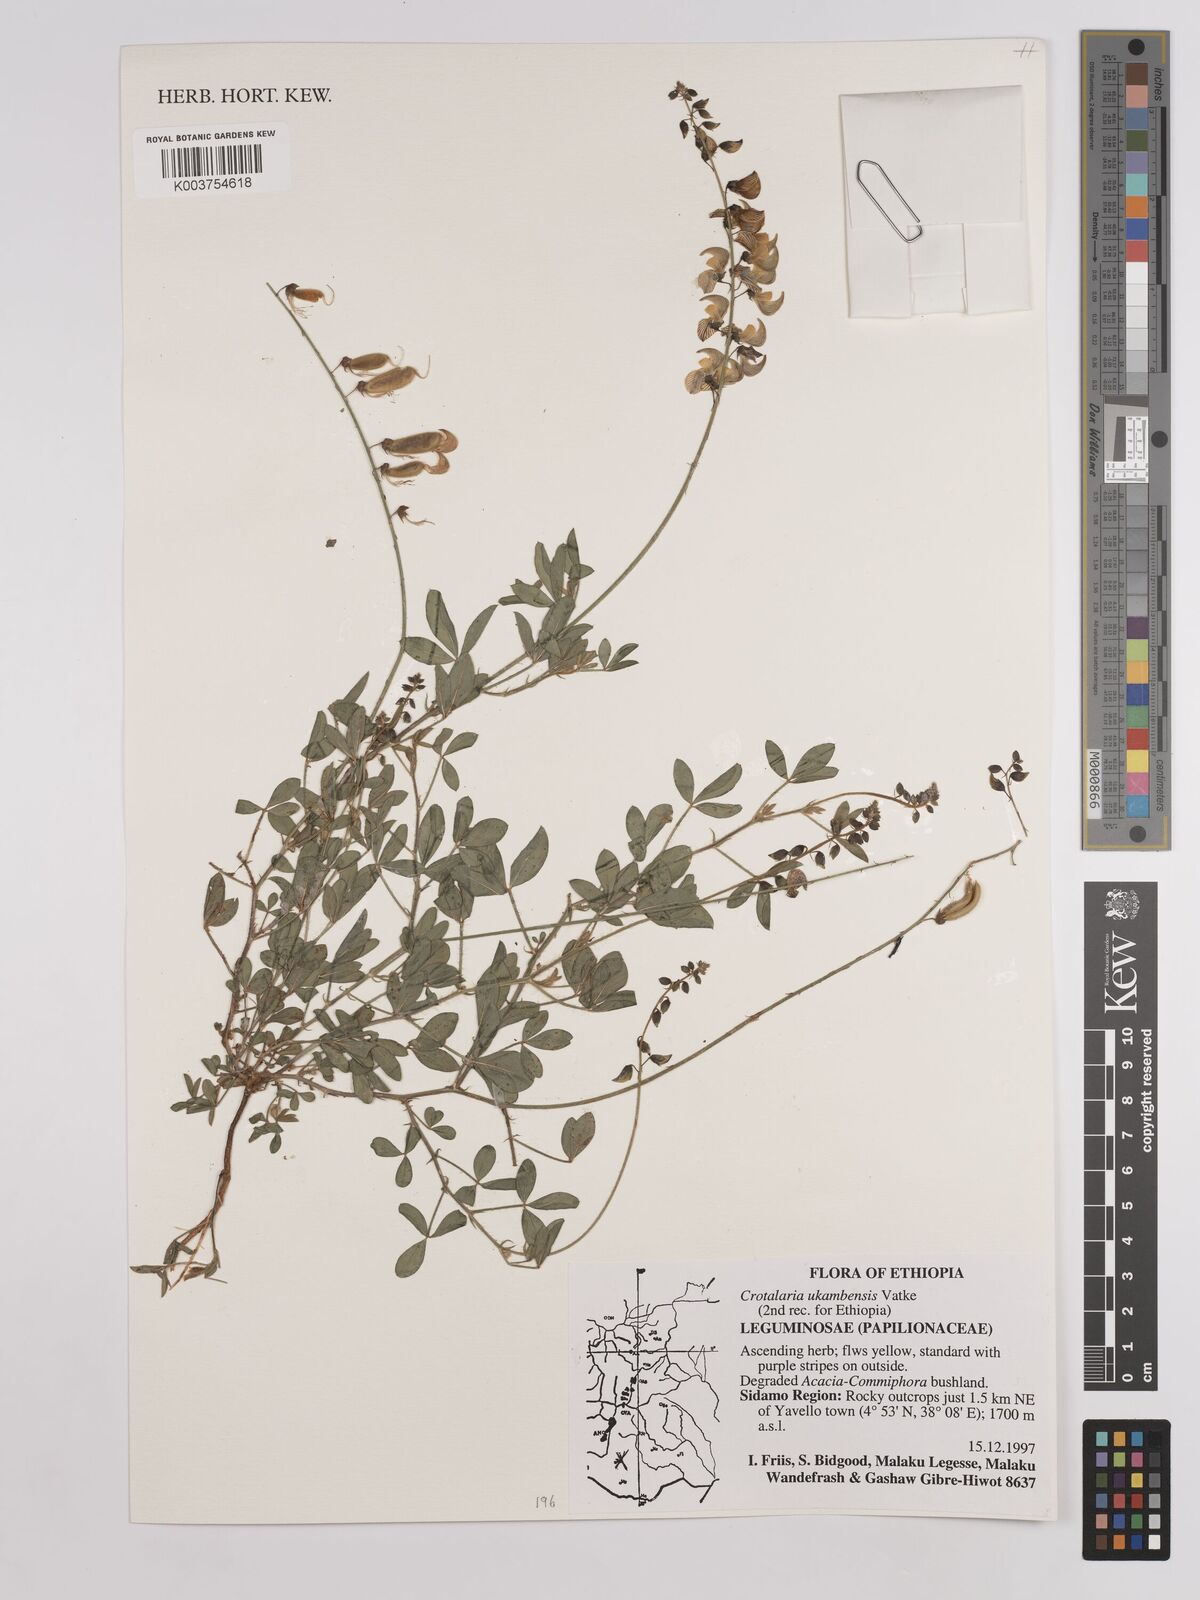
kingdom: Plantae
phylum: Tracheophyta
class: Magnoliopsida
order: Fabales
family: Fabaceae
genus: Crotalaria
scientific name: Crotalaria ukambensis
